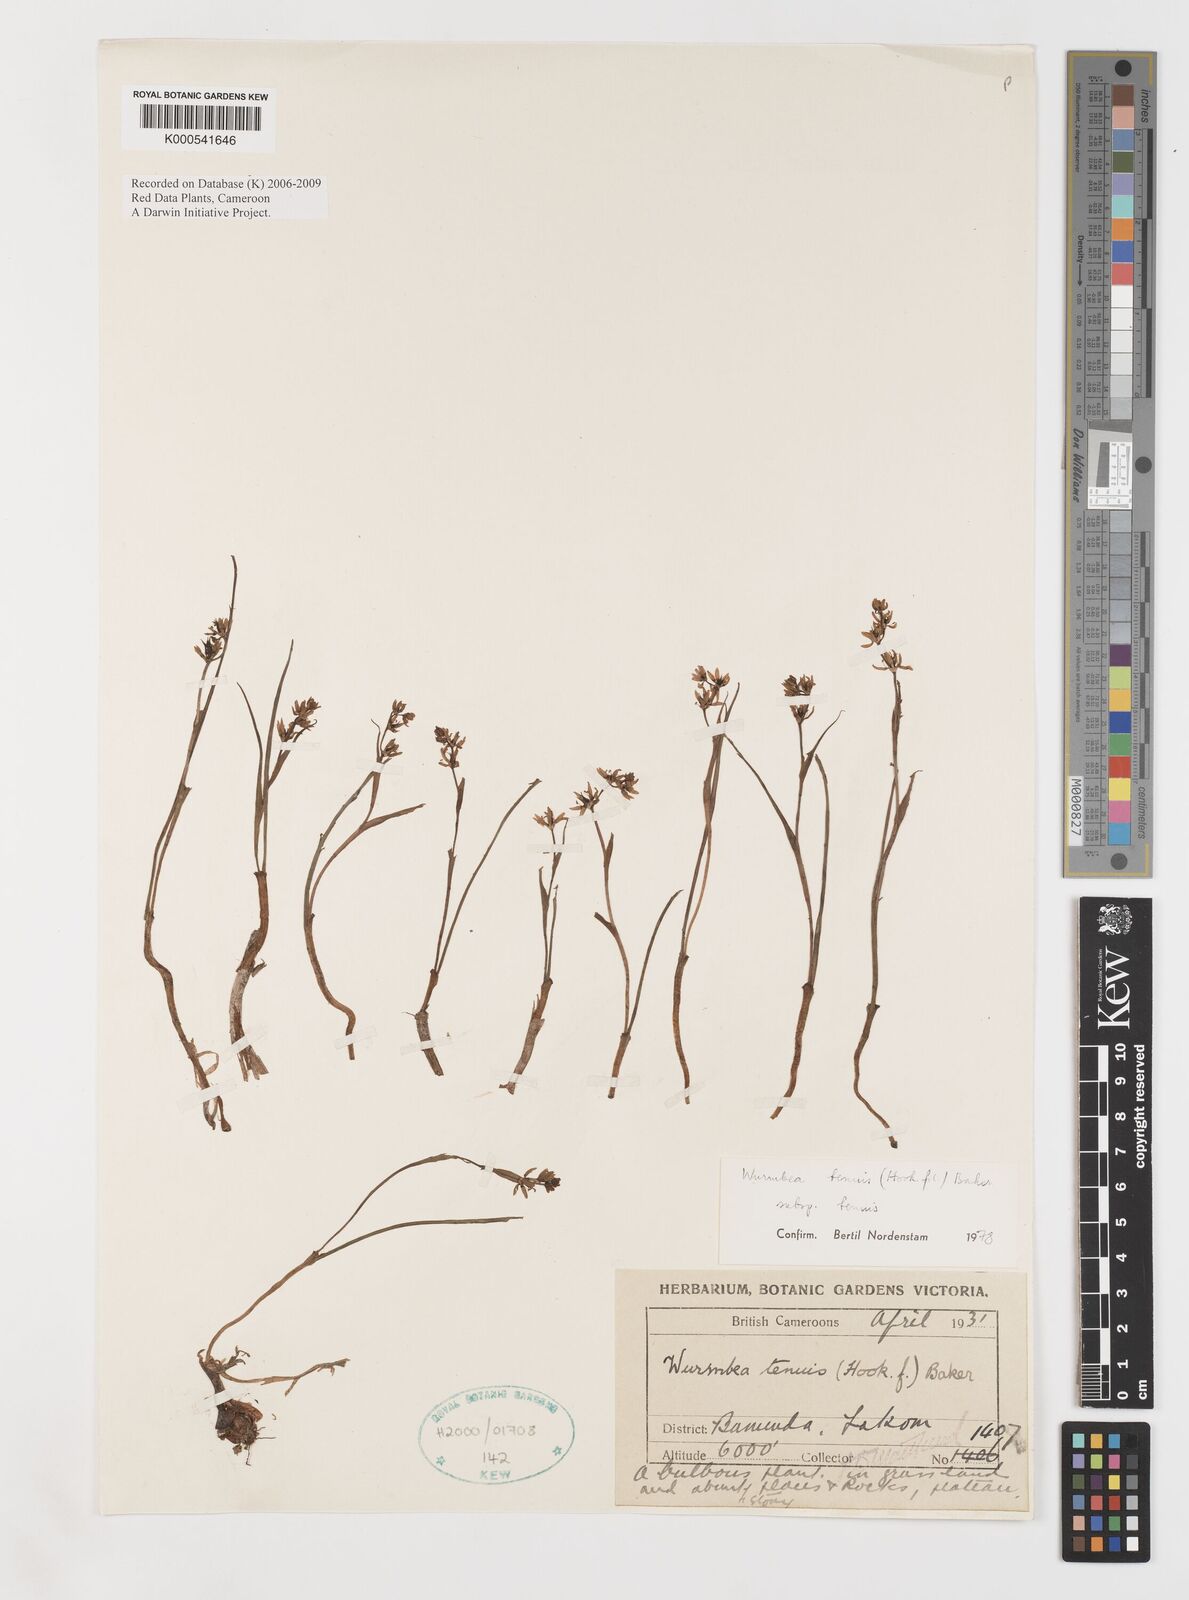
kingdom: Plantae
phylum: Tracheophyta
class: Liliopsida
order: Liliales
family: Colchicaceae
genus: Wurmbea
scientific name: Wurmbea tenuis
